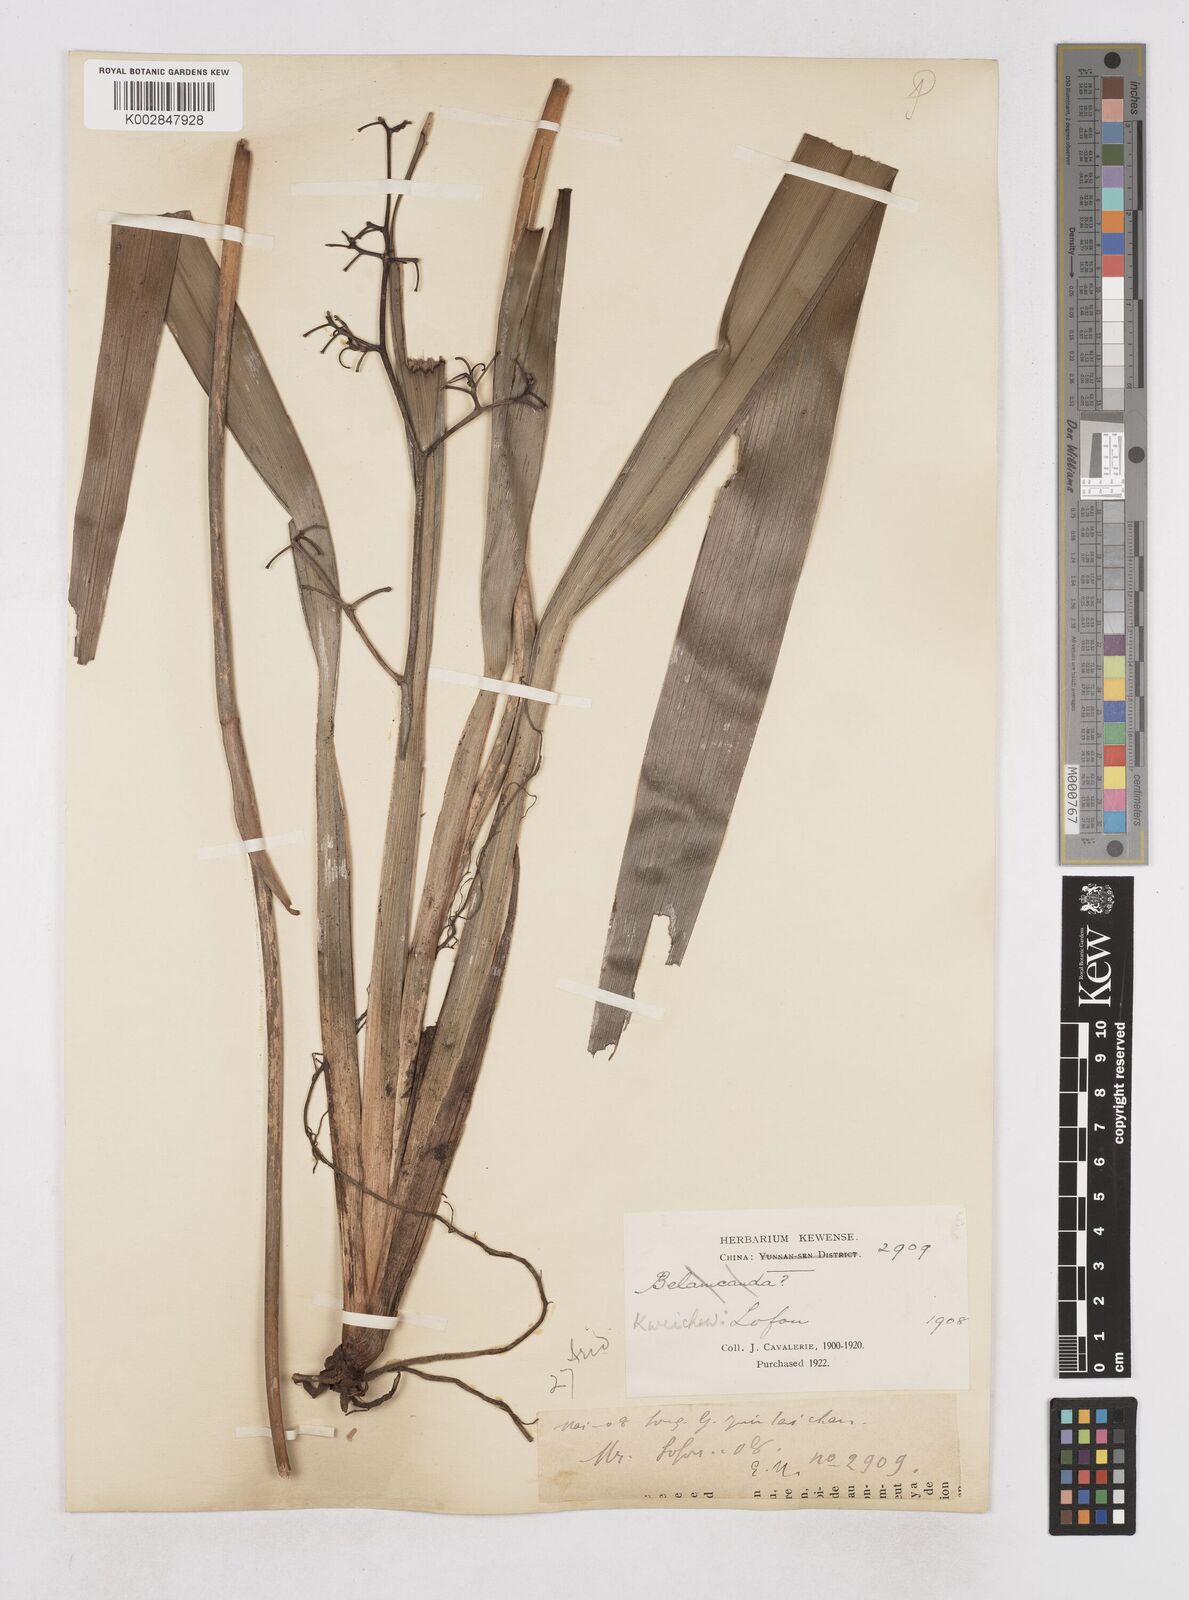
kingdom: Plantae
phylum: Tracheophyta
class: Liliopsida
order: Asparagales
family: Asphodelaceae
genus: Dianella
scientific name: Dianella ensifolia
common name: New zealand lilyplant
